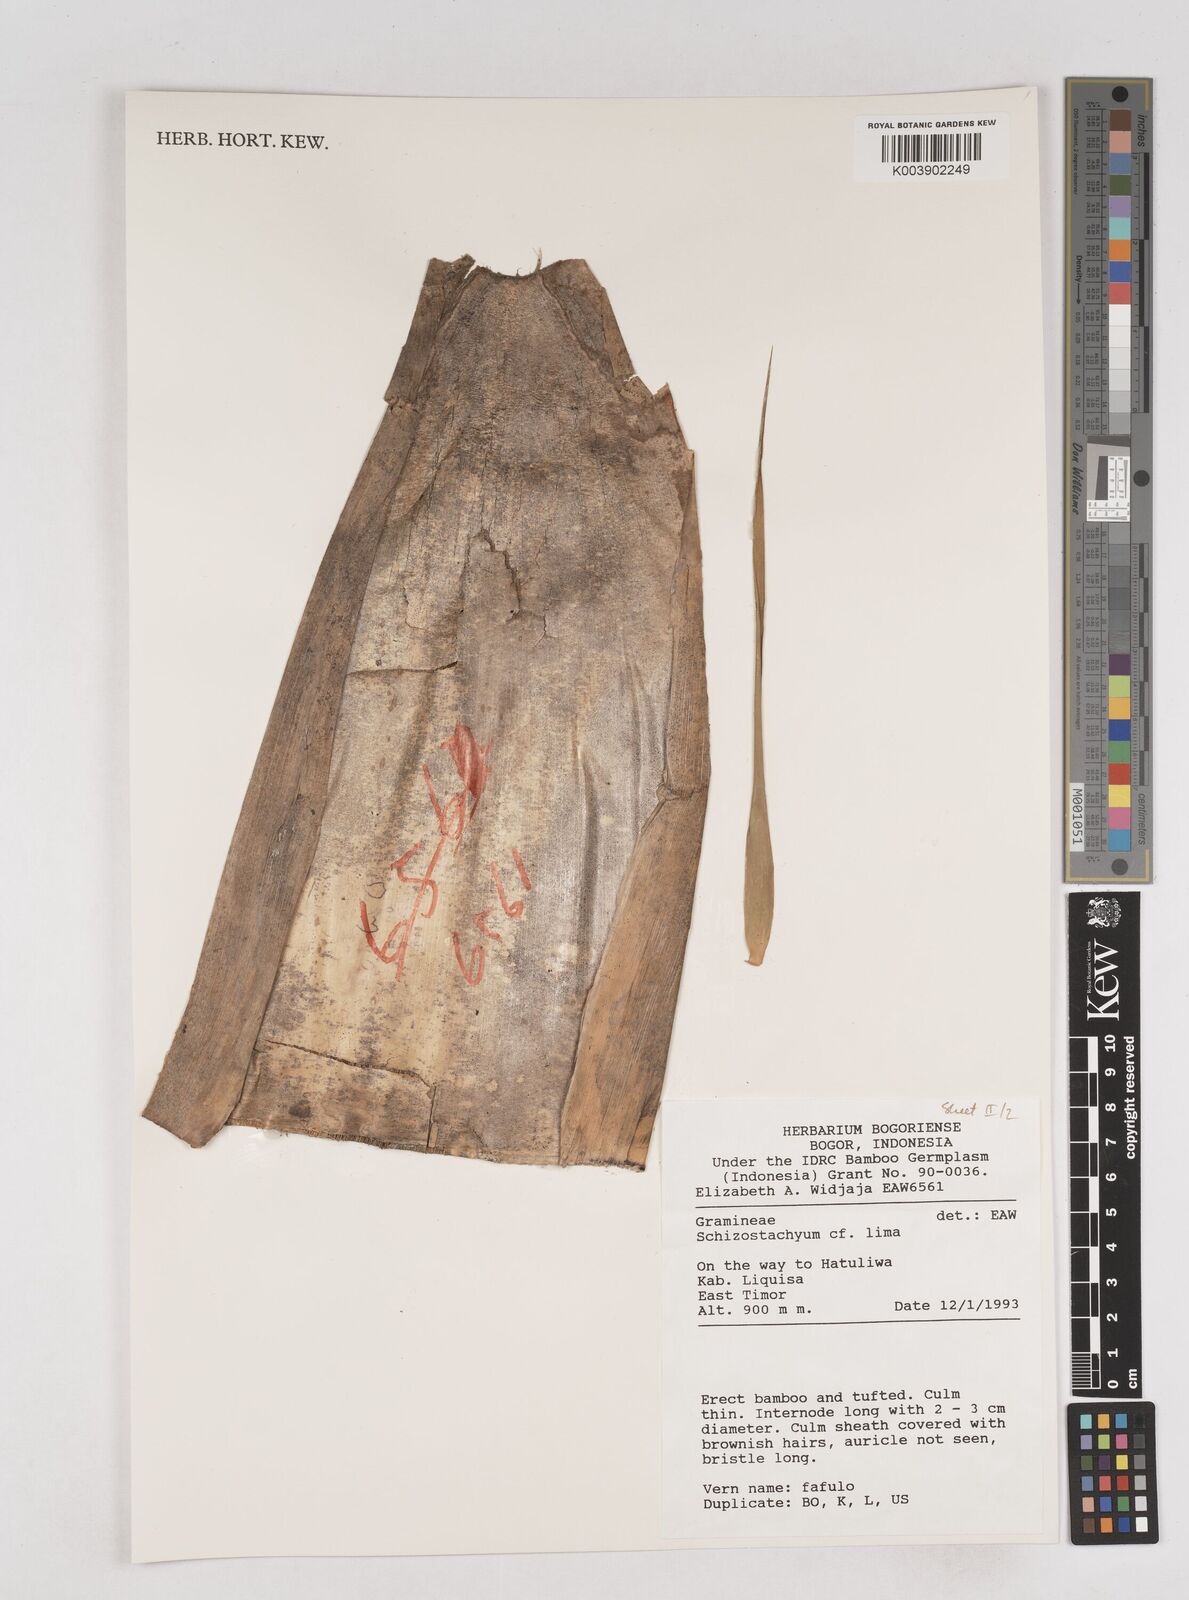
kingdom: Plantae
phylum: Tracheophyta
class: Liliopsida
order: Poales
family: Poaceae
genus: Schizostachyum
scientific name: Schizostachyum lima
